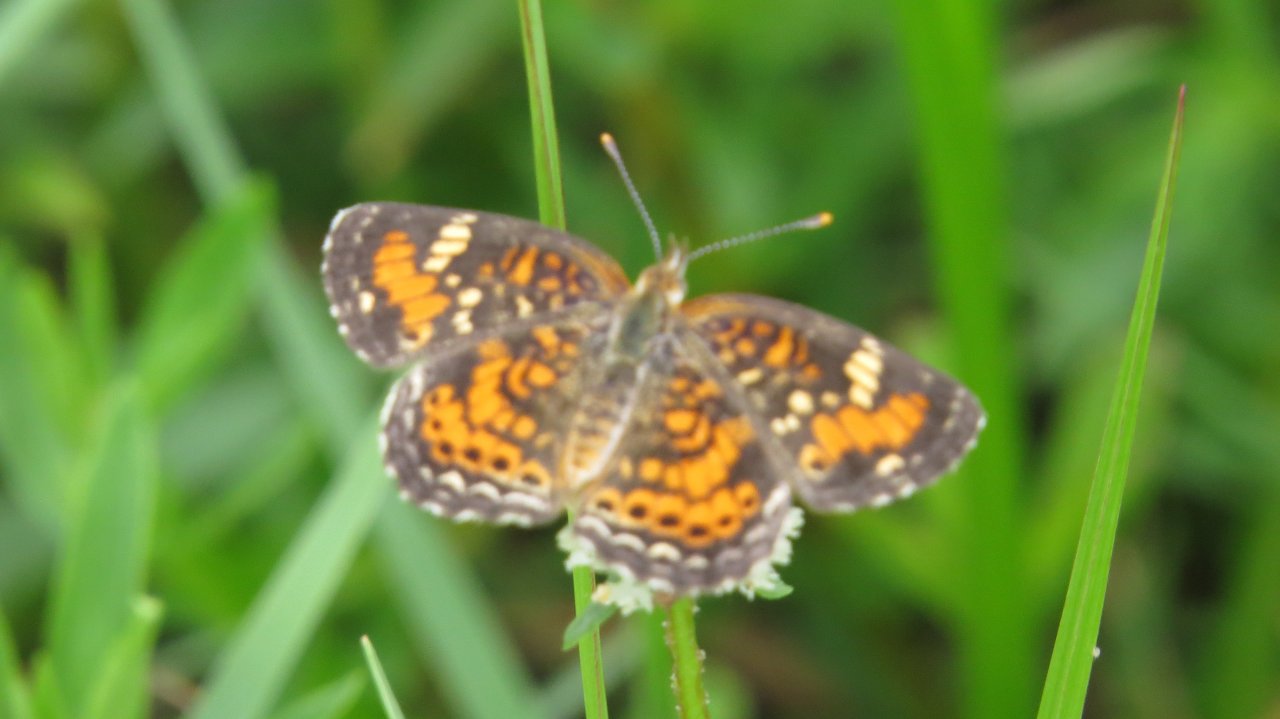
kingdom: Animalia
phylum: Arthropoda
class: Insecta
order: Lepidoptera
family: Nymphalidae
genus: Phyciodes
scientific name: Phyciodes phaon
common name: Phaon Crescent
